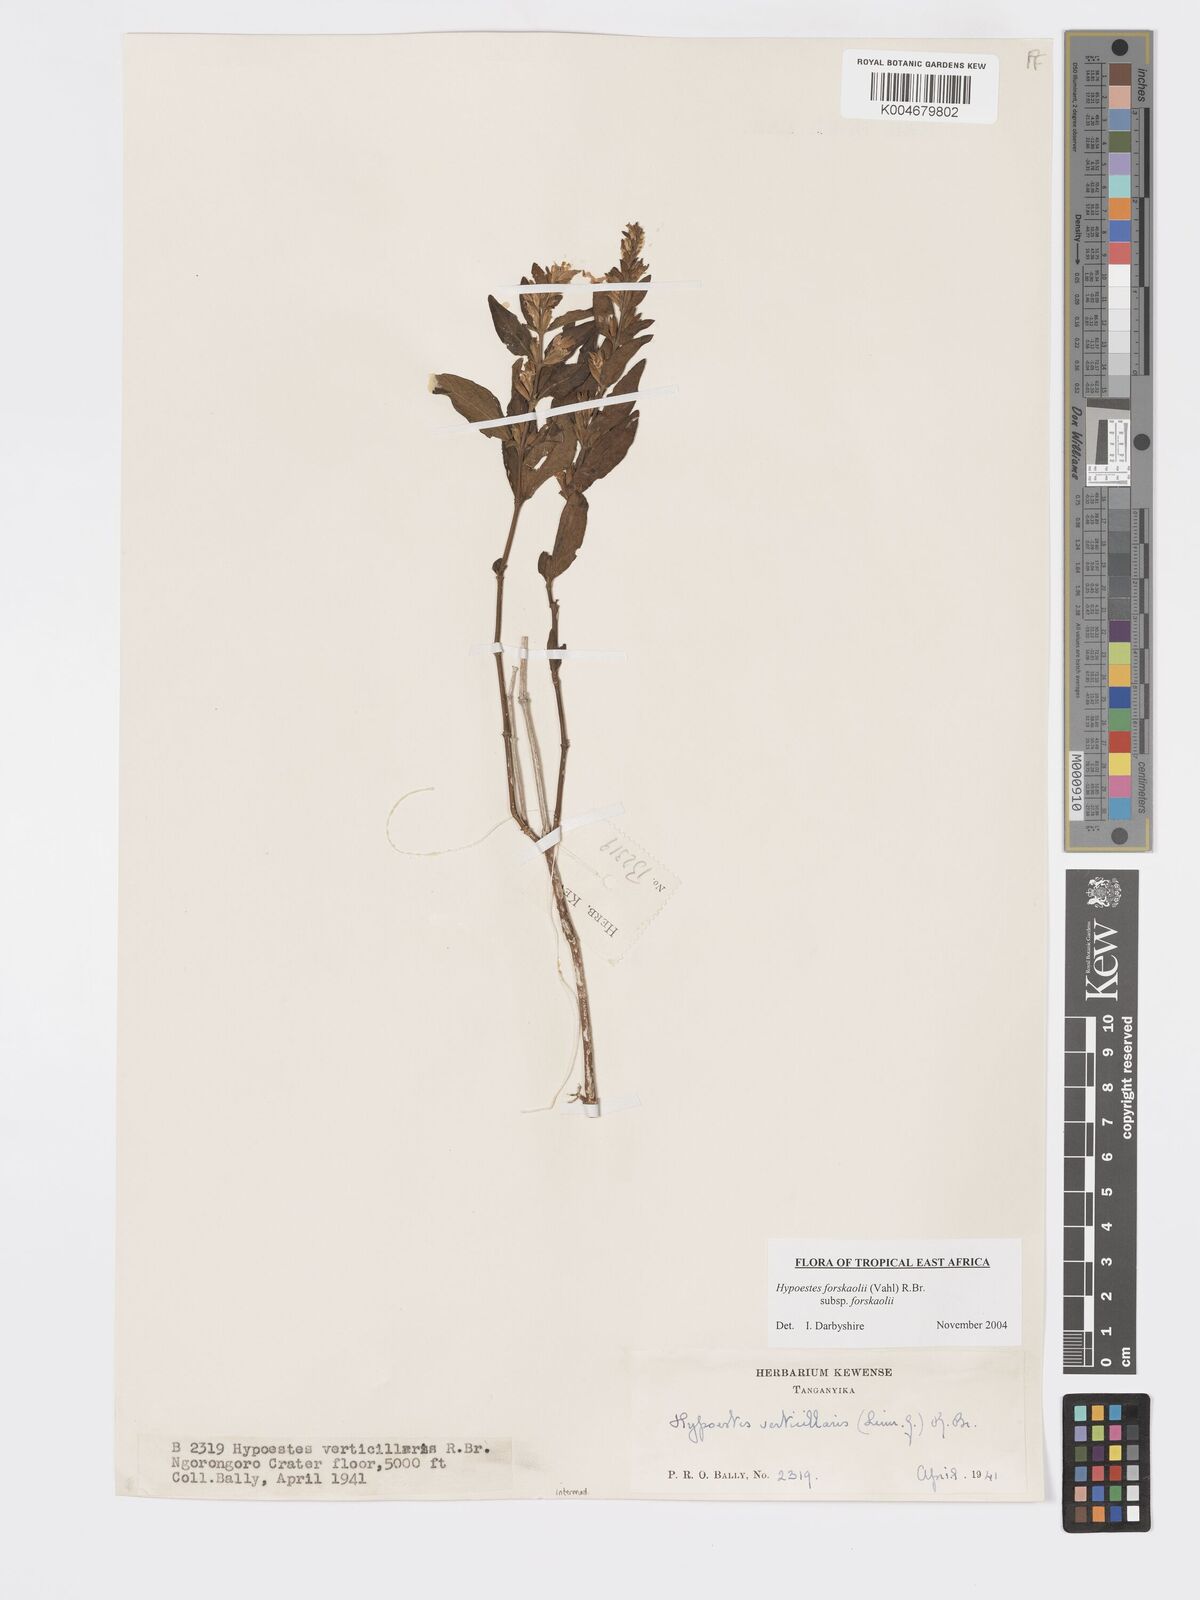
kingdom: Plantae
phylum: Tracheophyta
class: Magnoliopsida
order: Lamiales
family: Acanthaceae
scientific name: Acanthaceae
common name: Acanthaceae
